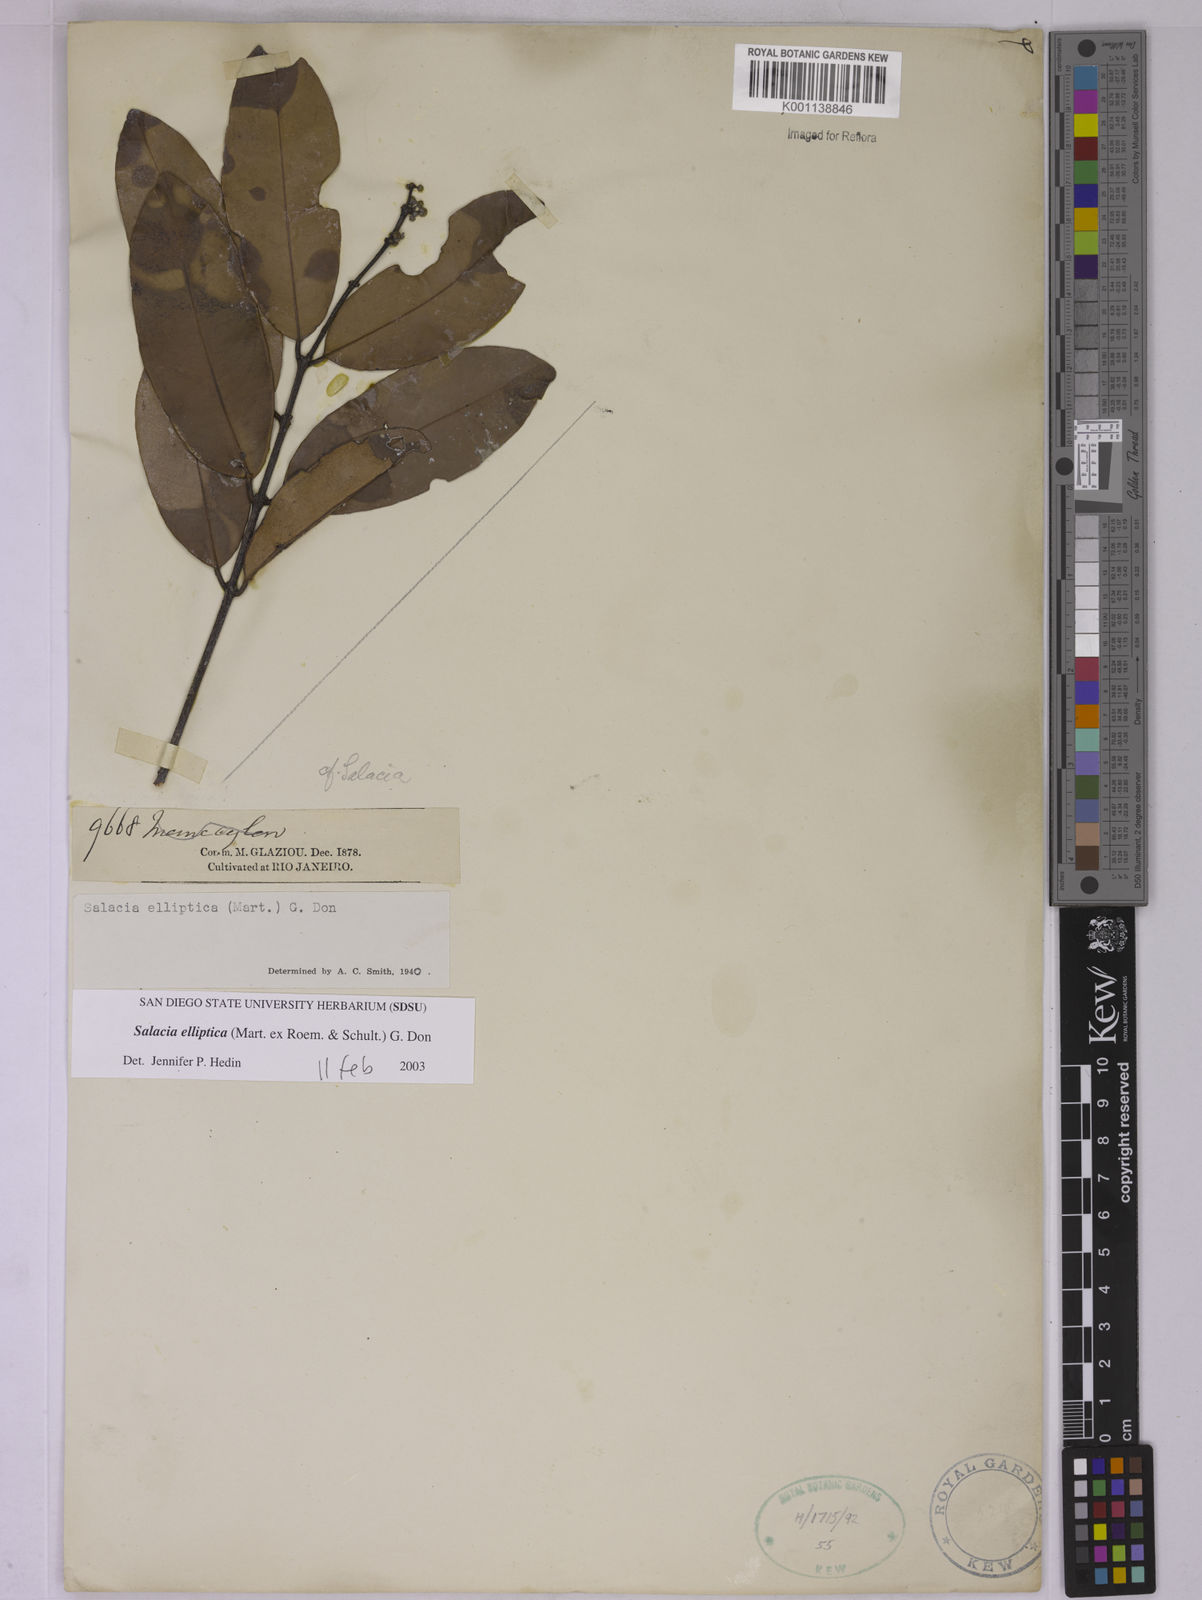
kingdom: Plantae
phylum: Tracheophyta
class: Magnoliopsida
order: Celastrales
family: Celastraceae
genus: Salacia
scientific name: Salacia elliptica
